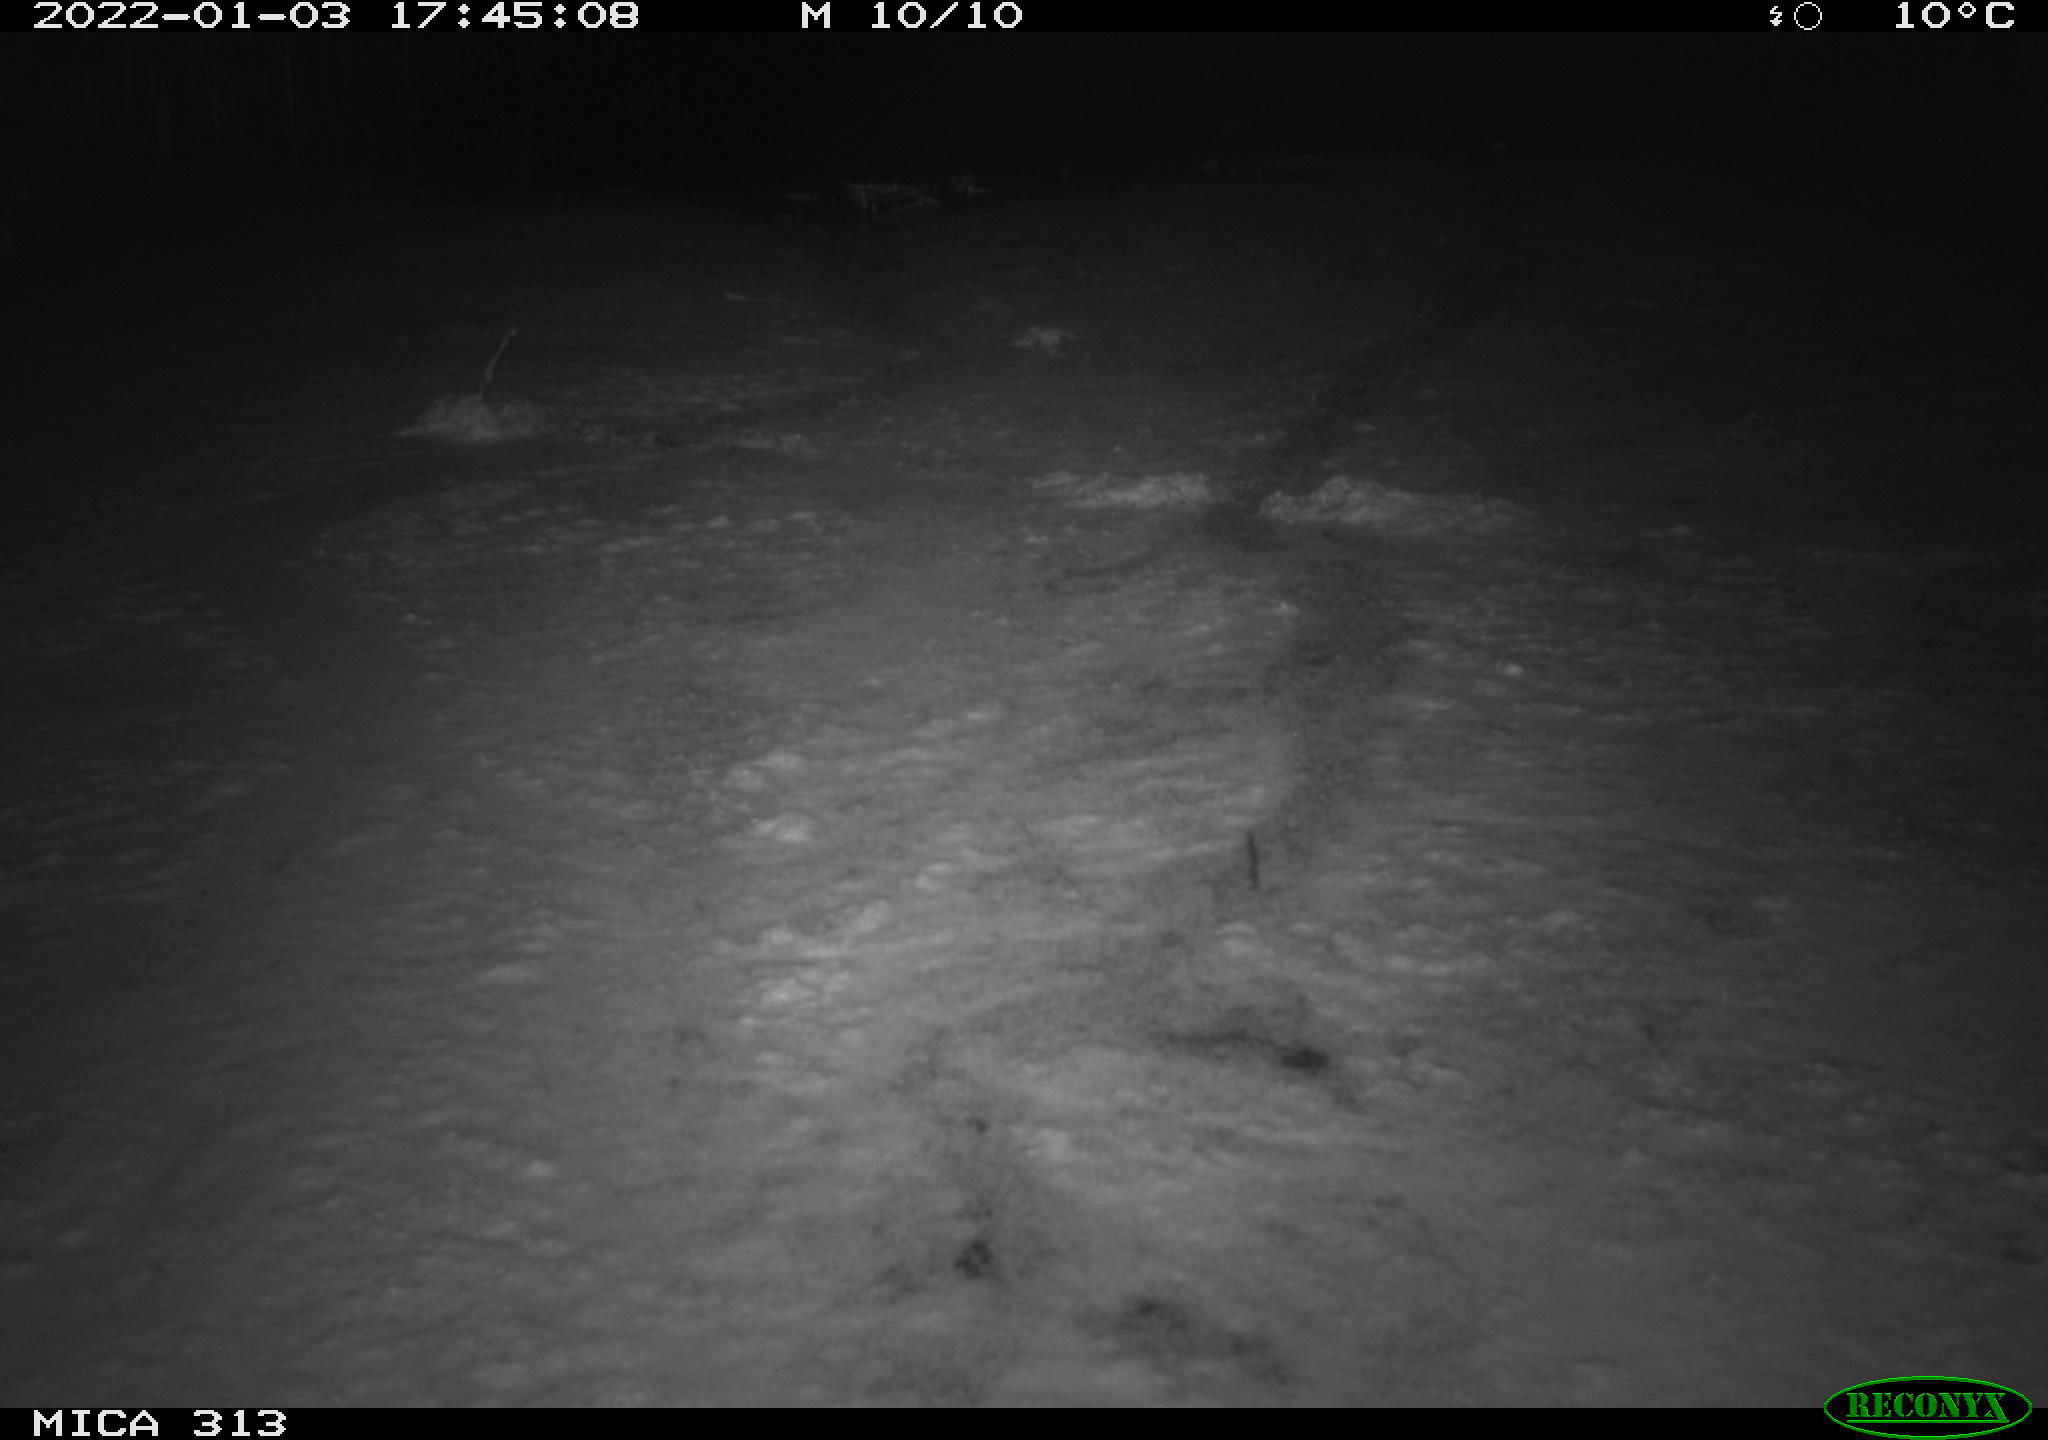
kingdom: Animalia
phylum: Chordata
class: Aves
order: Gruiformes
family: Rallidae
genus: Gallinula
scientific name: Gallinula chloropus
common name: Common moorhen
